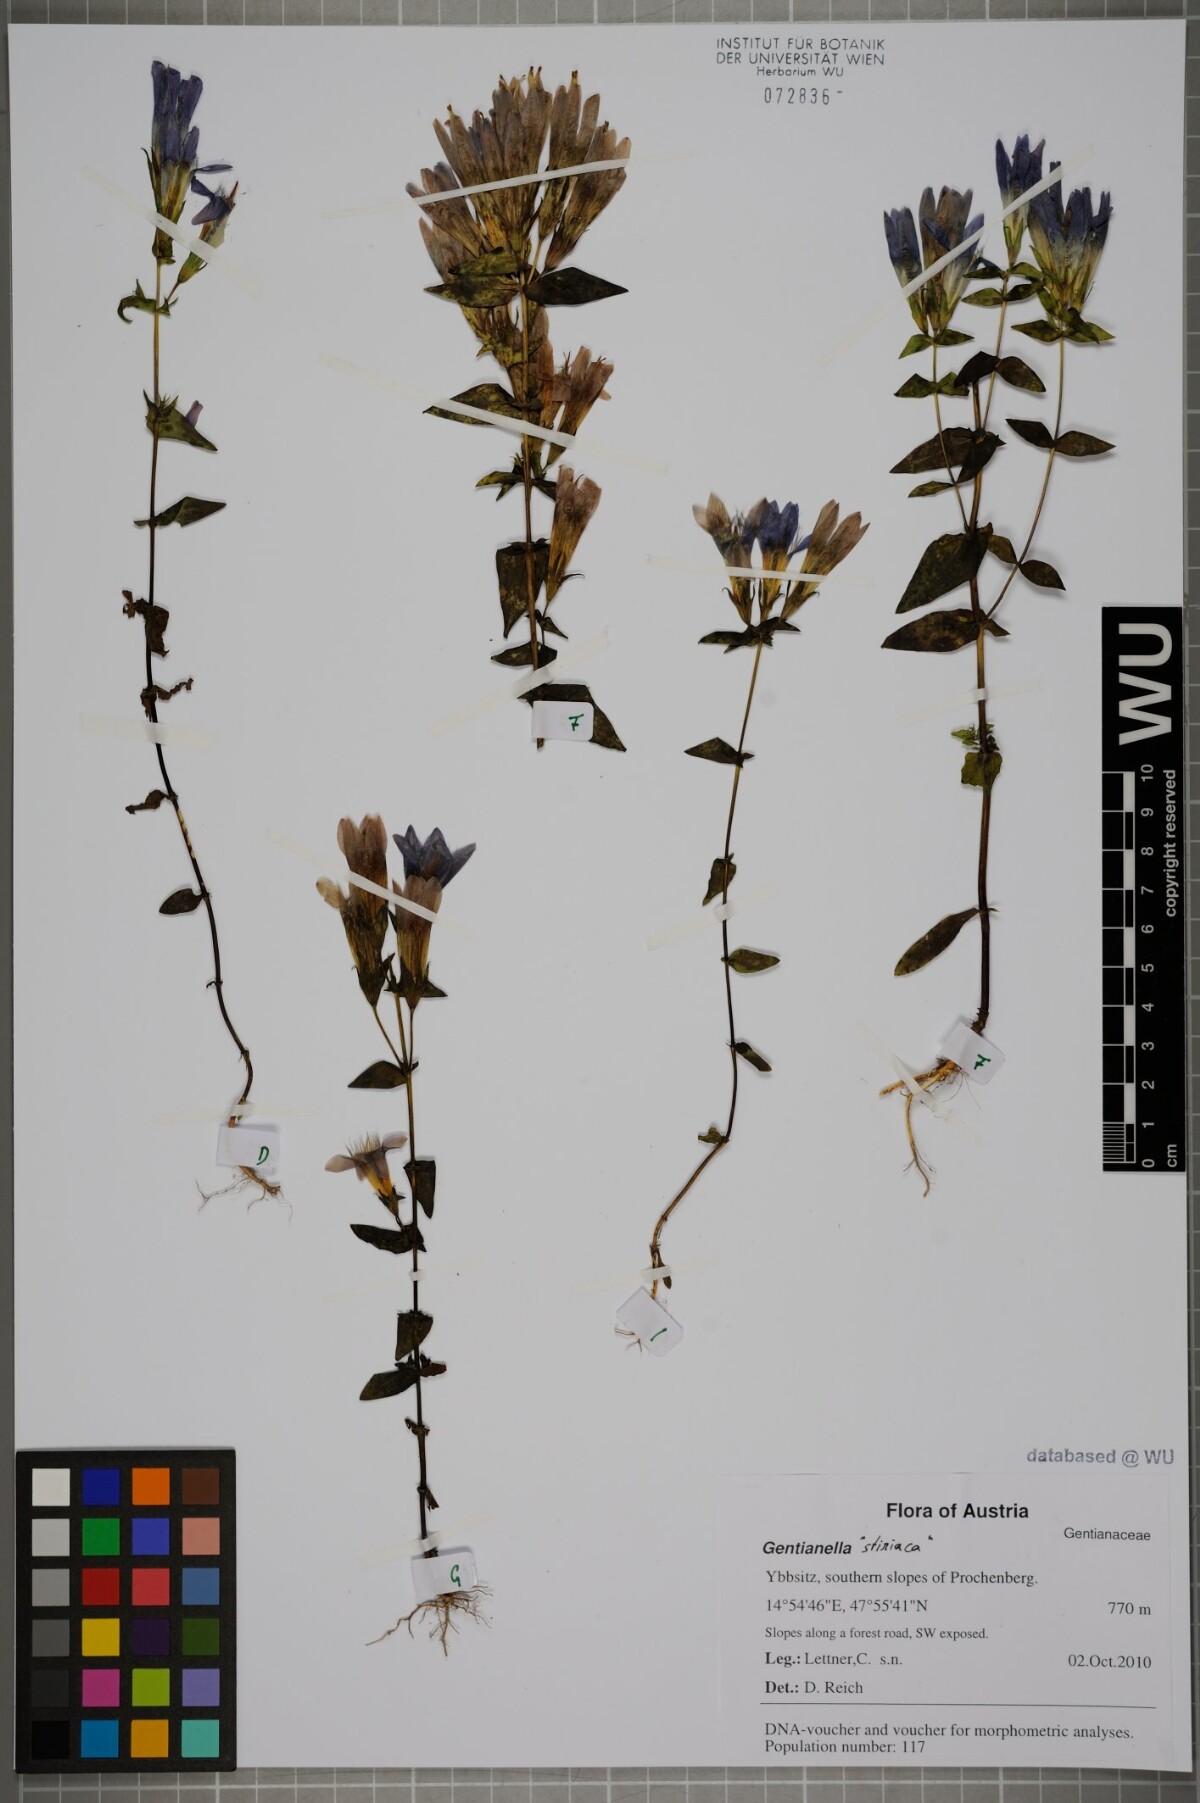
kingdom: Plantae
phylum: Tracheophyta
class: Magnoliopsida
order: Gentianales
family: Gentianaceae
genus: Gentianella
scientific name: Gentianella
